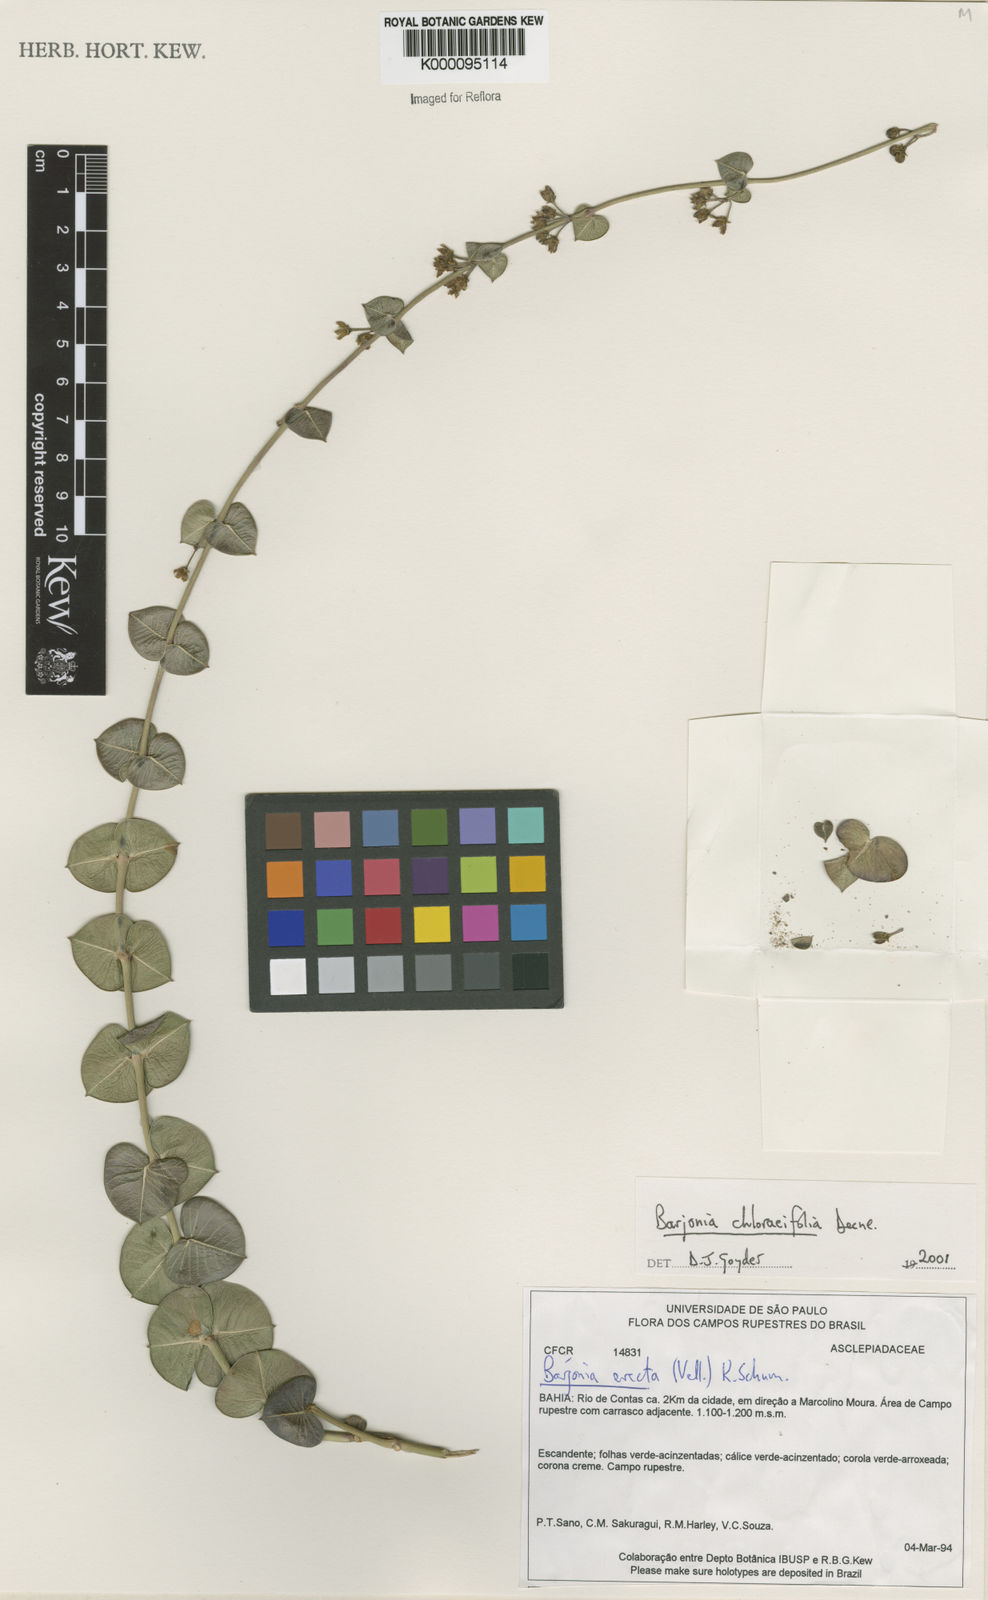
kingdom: Plantae
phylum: Tracheophyta
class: Magnoliopsida
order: Gentianales
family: Apocynaceae
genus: Barjonia
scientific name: Barjonia
